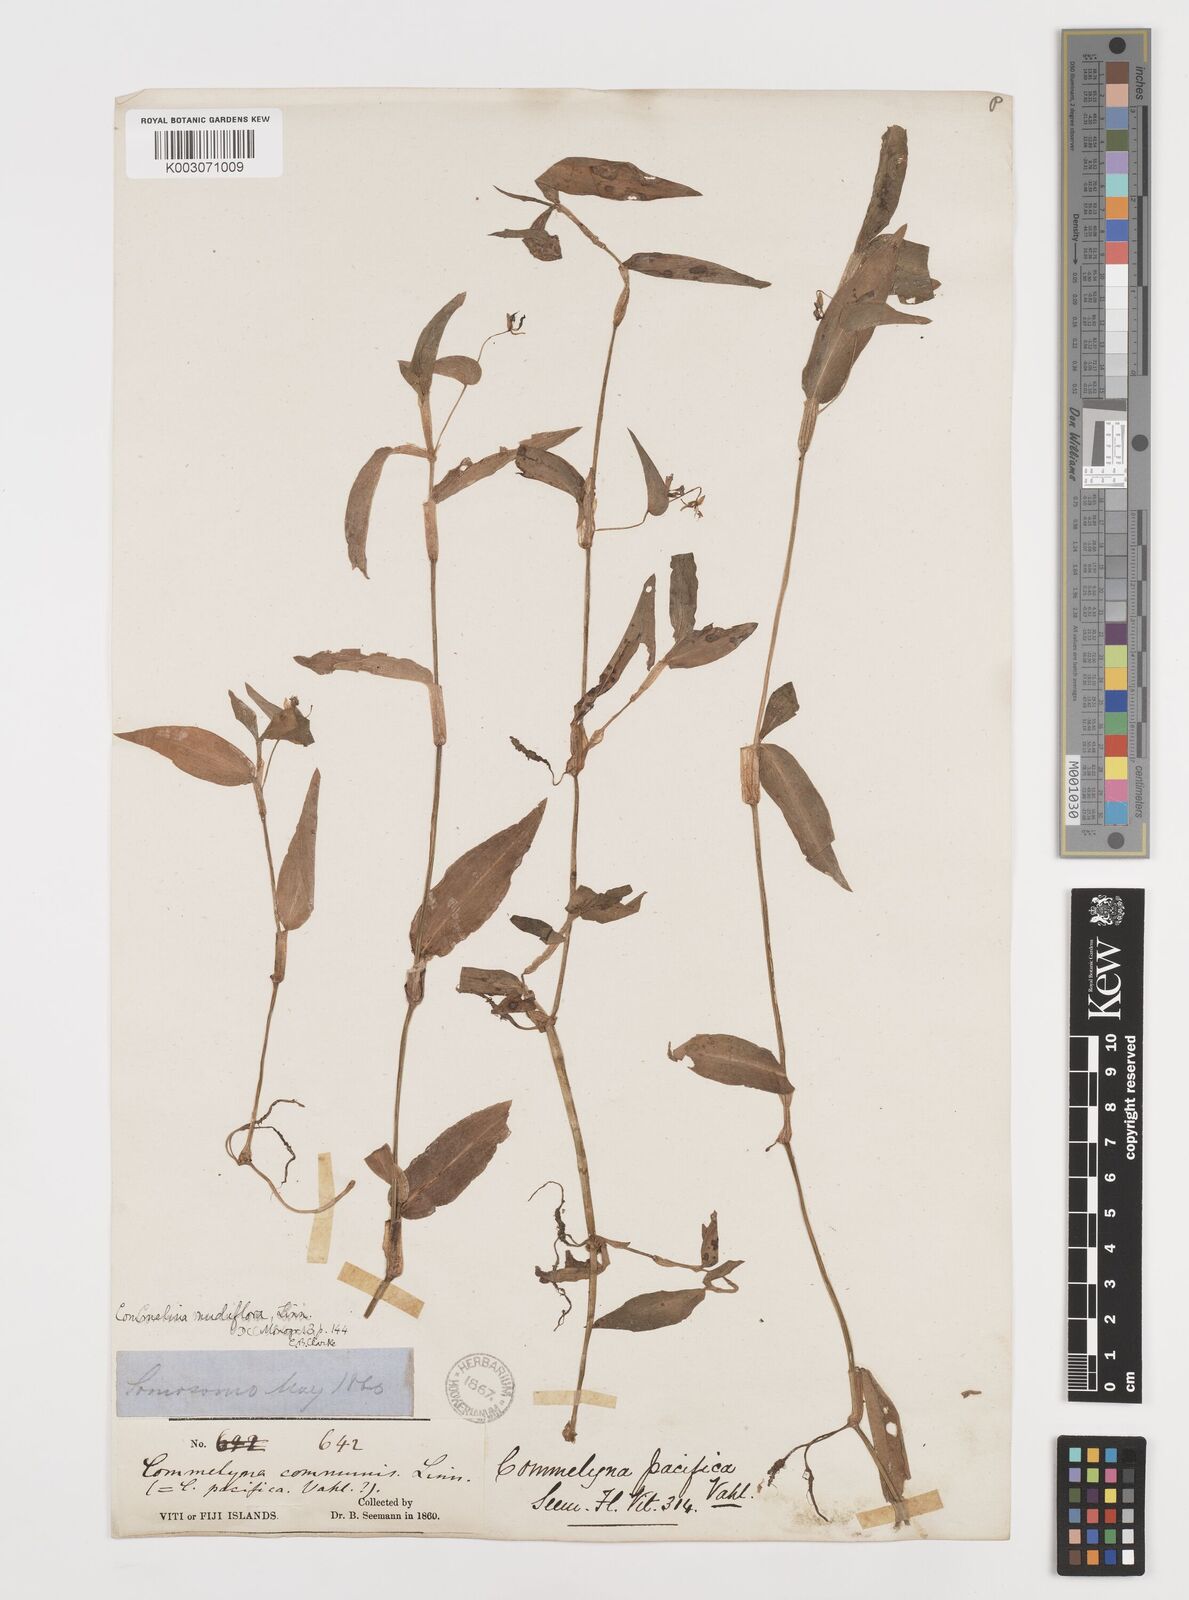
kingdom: Plantae
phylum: Tracheophyta
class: Liliopsida
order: Commelinales
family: Commelinaceae
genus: Commelina
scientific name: Commelina diffusa
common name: Climbing dayflower
